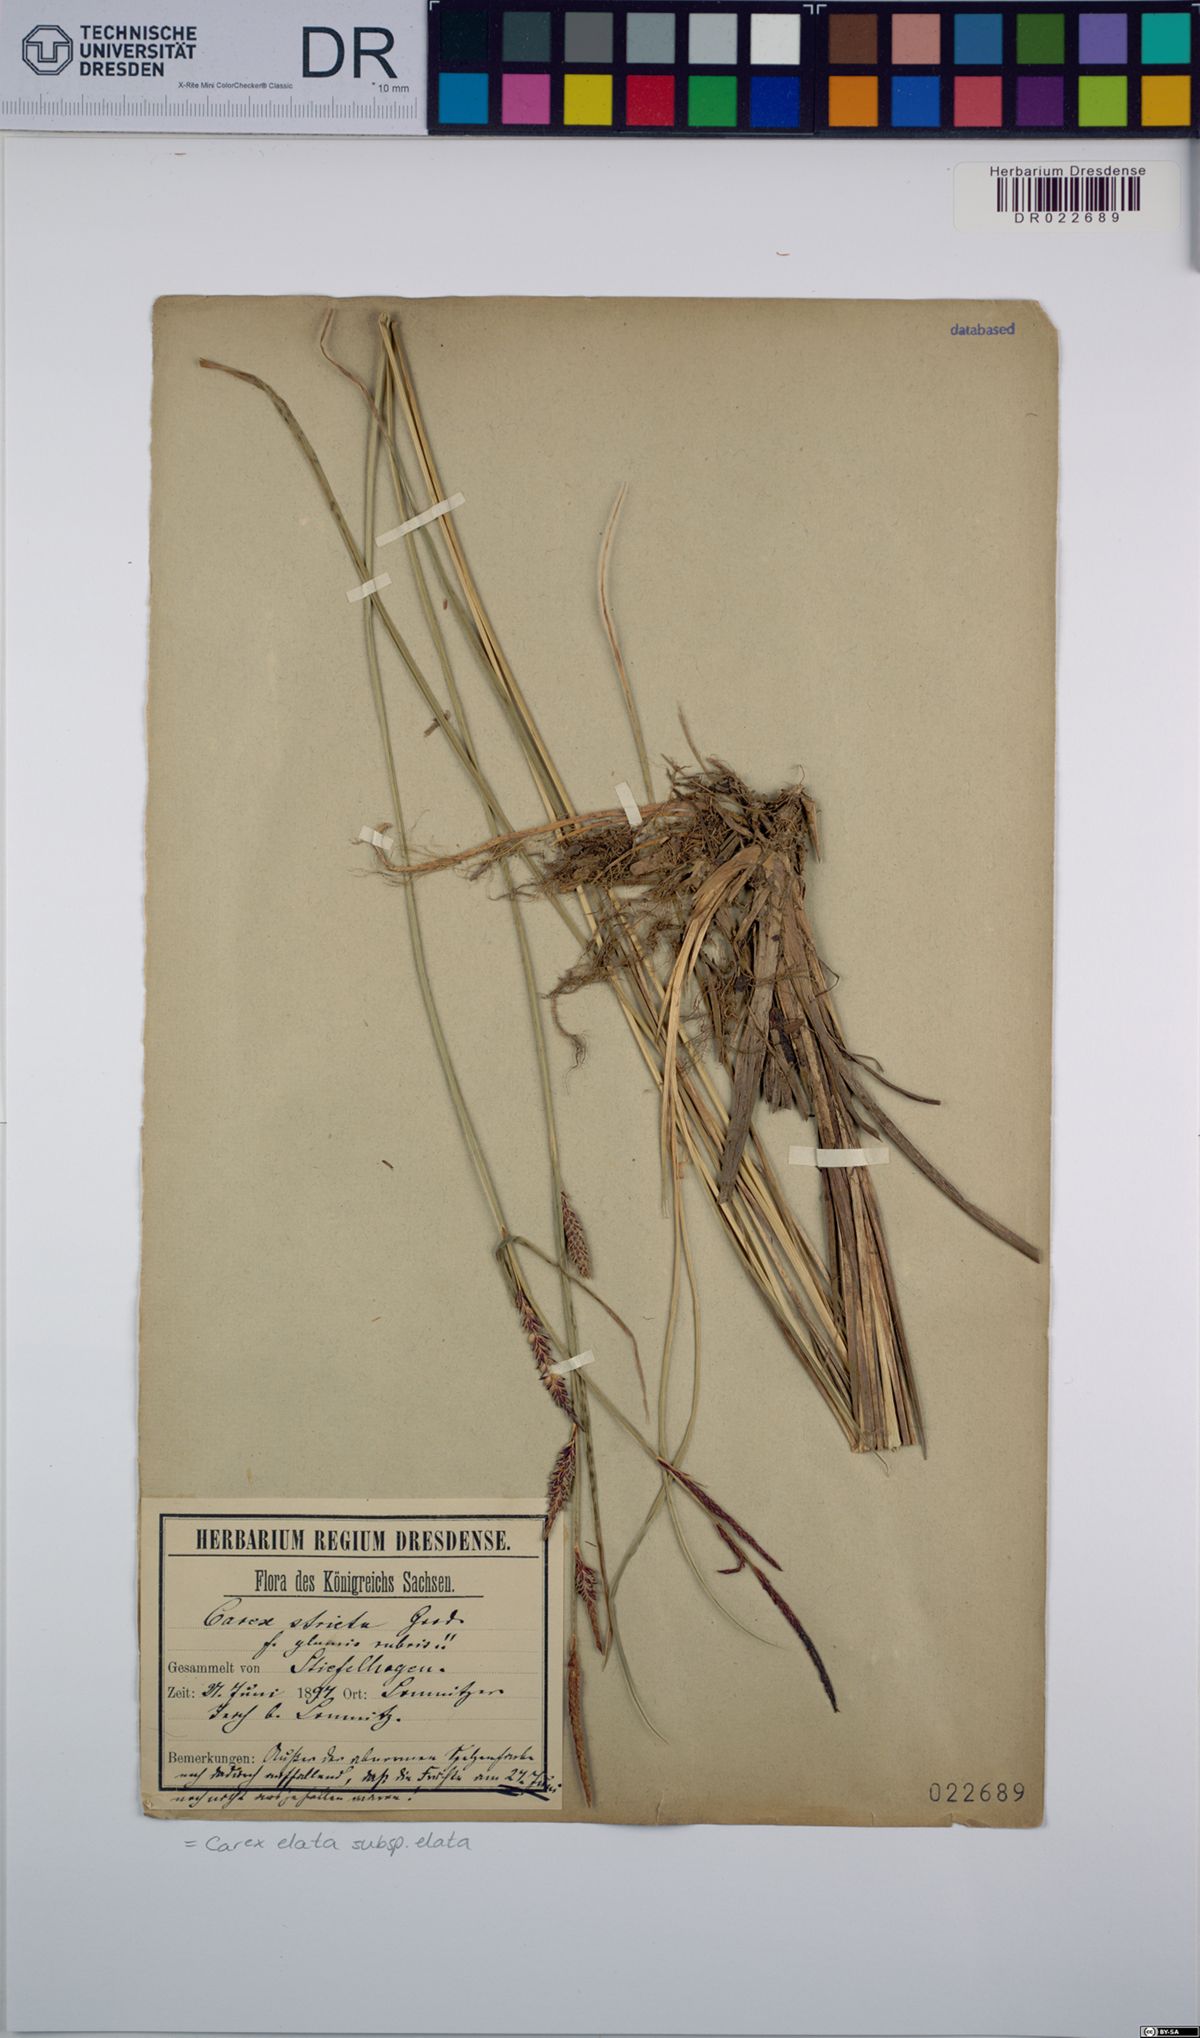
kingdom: Plantae
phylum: Tracheophyta
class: Liliopsida
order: Poales
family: Cyperaceae
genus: Carex
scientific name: Carex elata
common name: Tufted sedge
